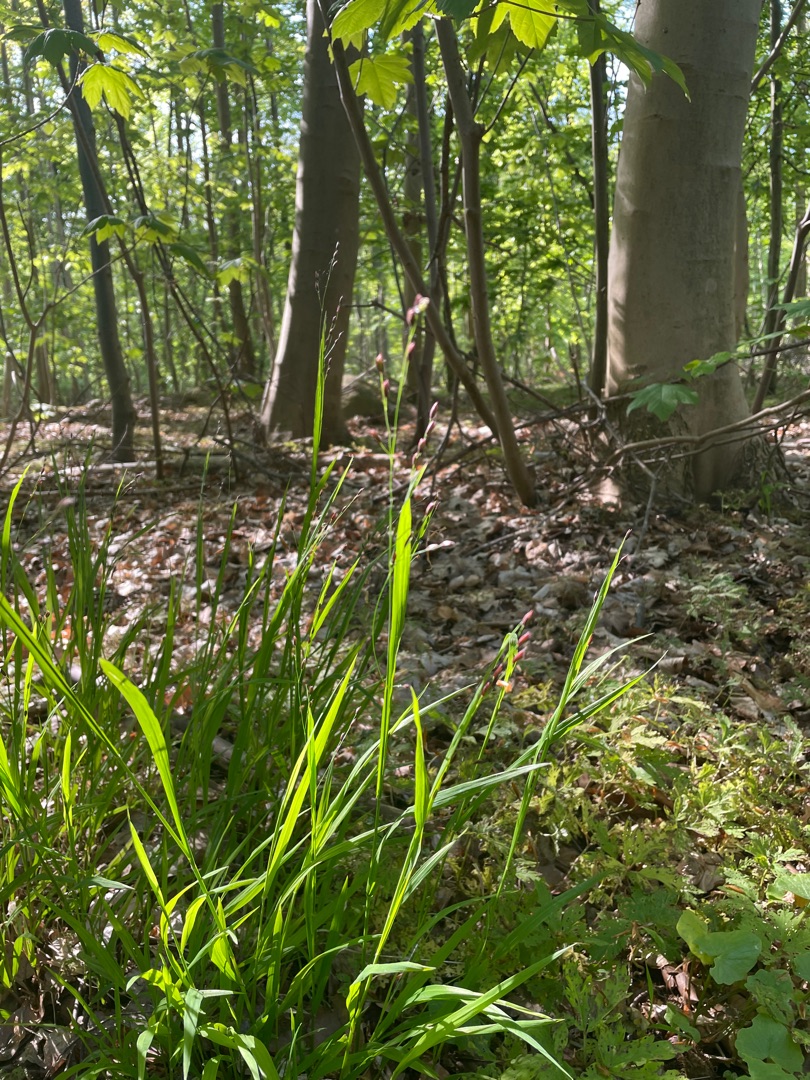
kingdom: Plantae
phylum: Tracheophyta
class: Liliopsida
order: Poales
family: Poaceae
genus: Melica
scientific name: Melica uniflora
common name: Enblomstret flitteraks
